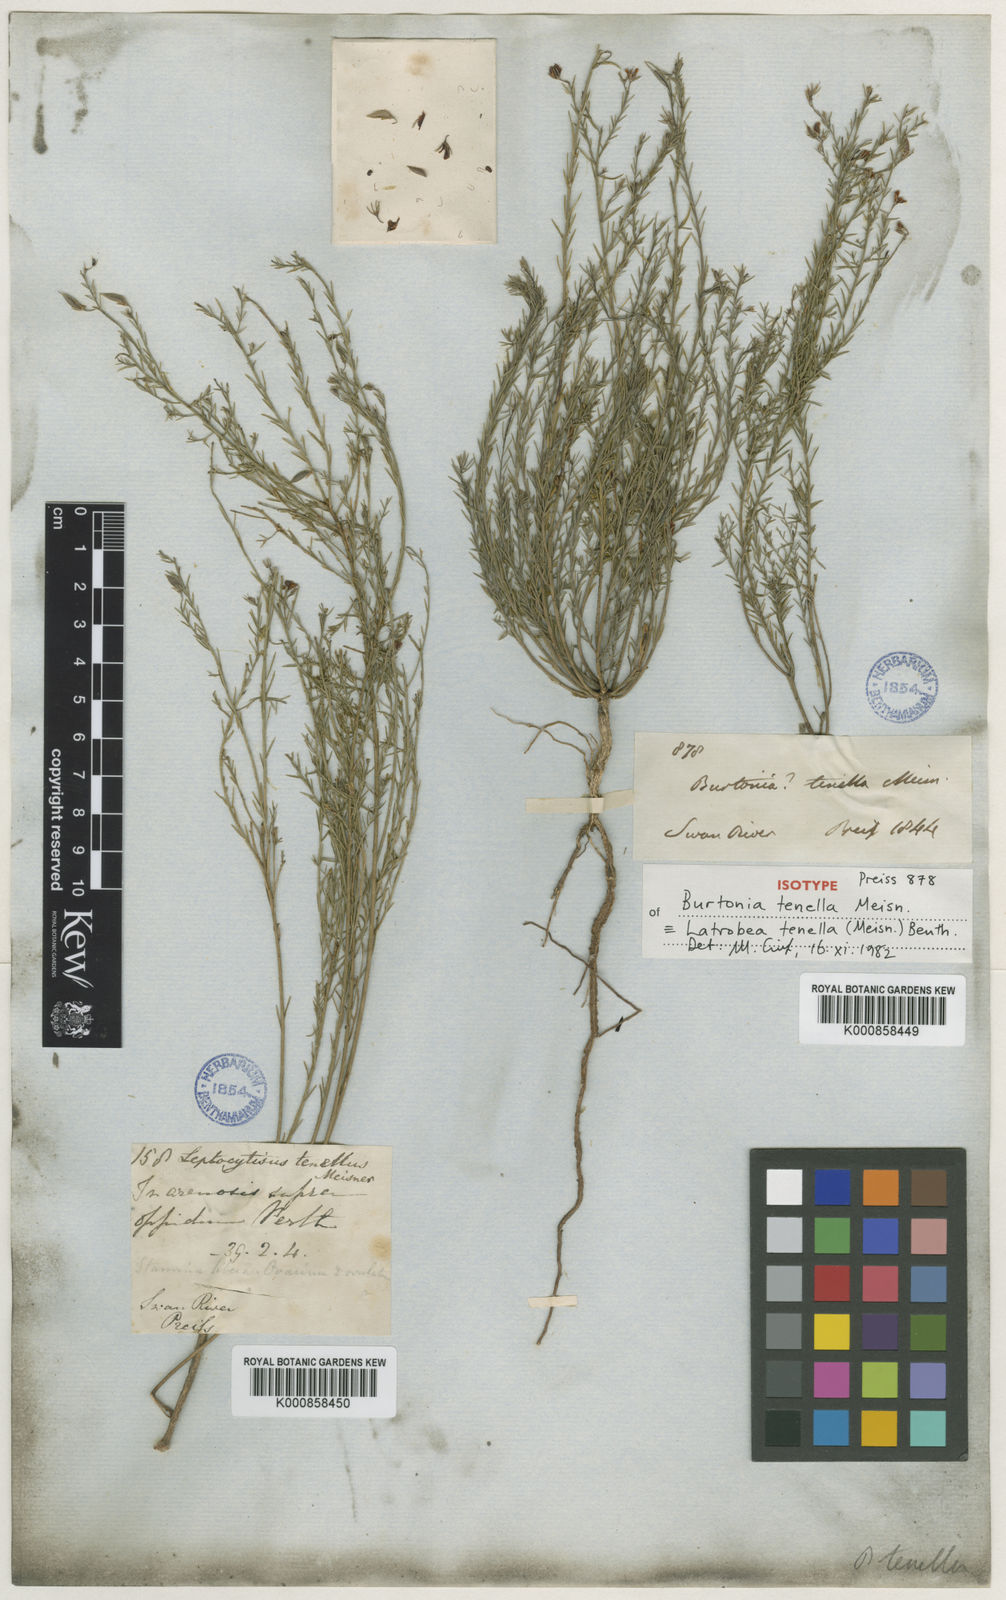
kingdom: Plantae
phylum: Tracheophyta
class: Magnoliopsida
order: Fabales
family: Fabaceae
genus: Latrobea
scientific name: Latrobea tenella
